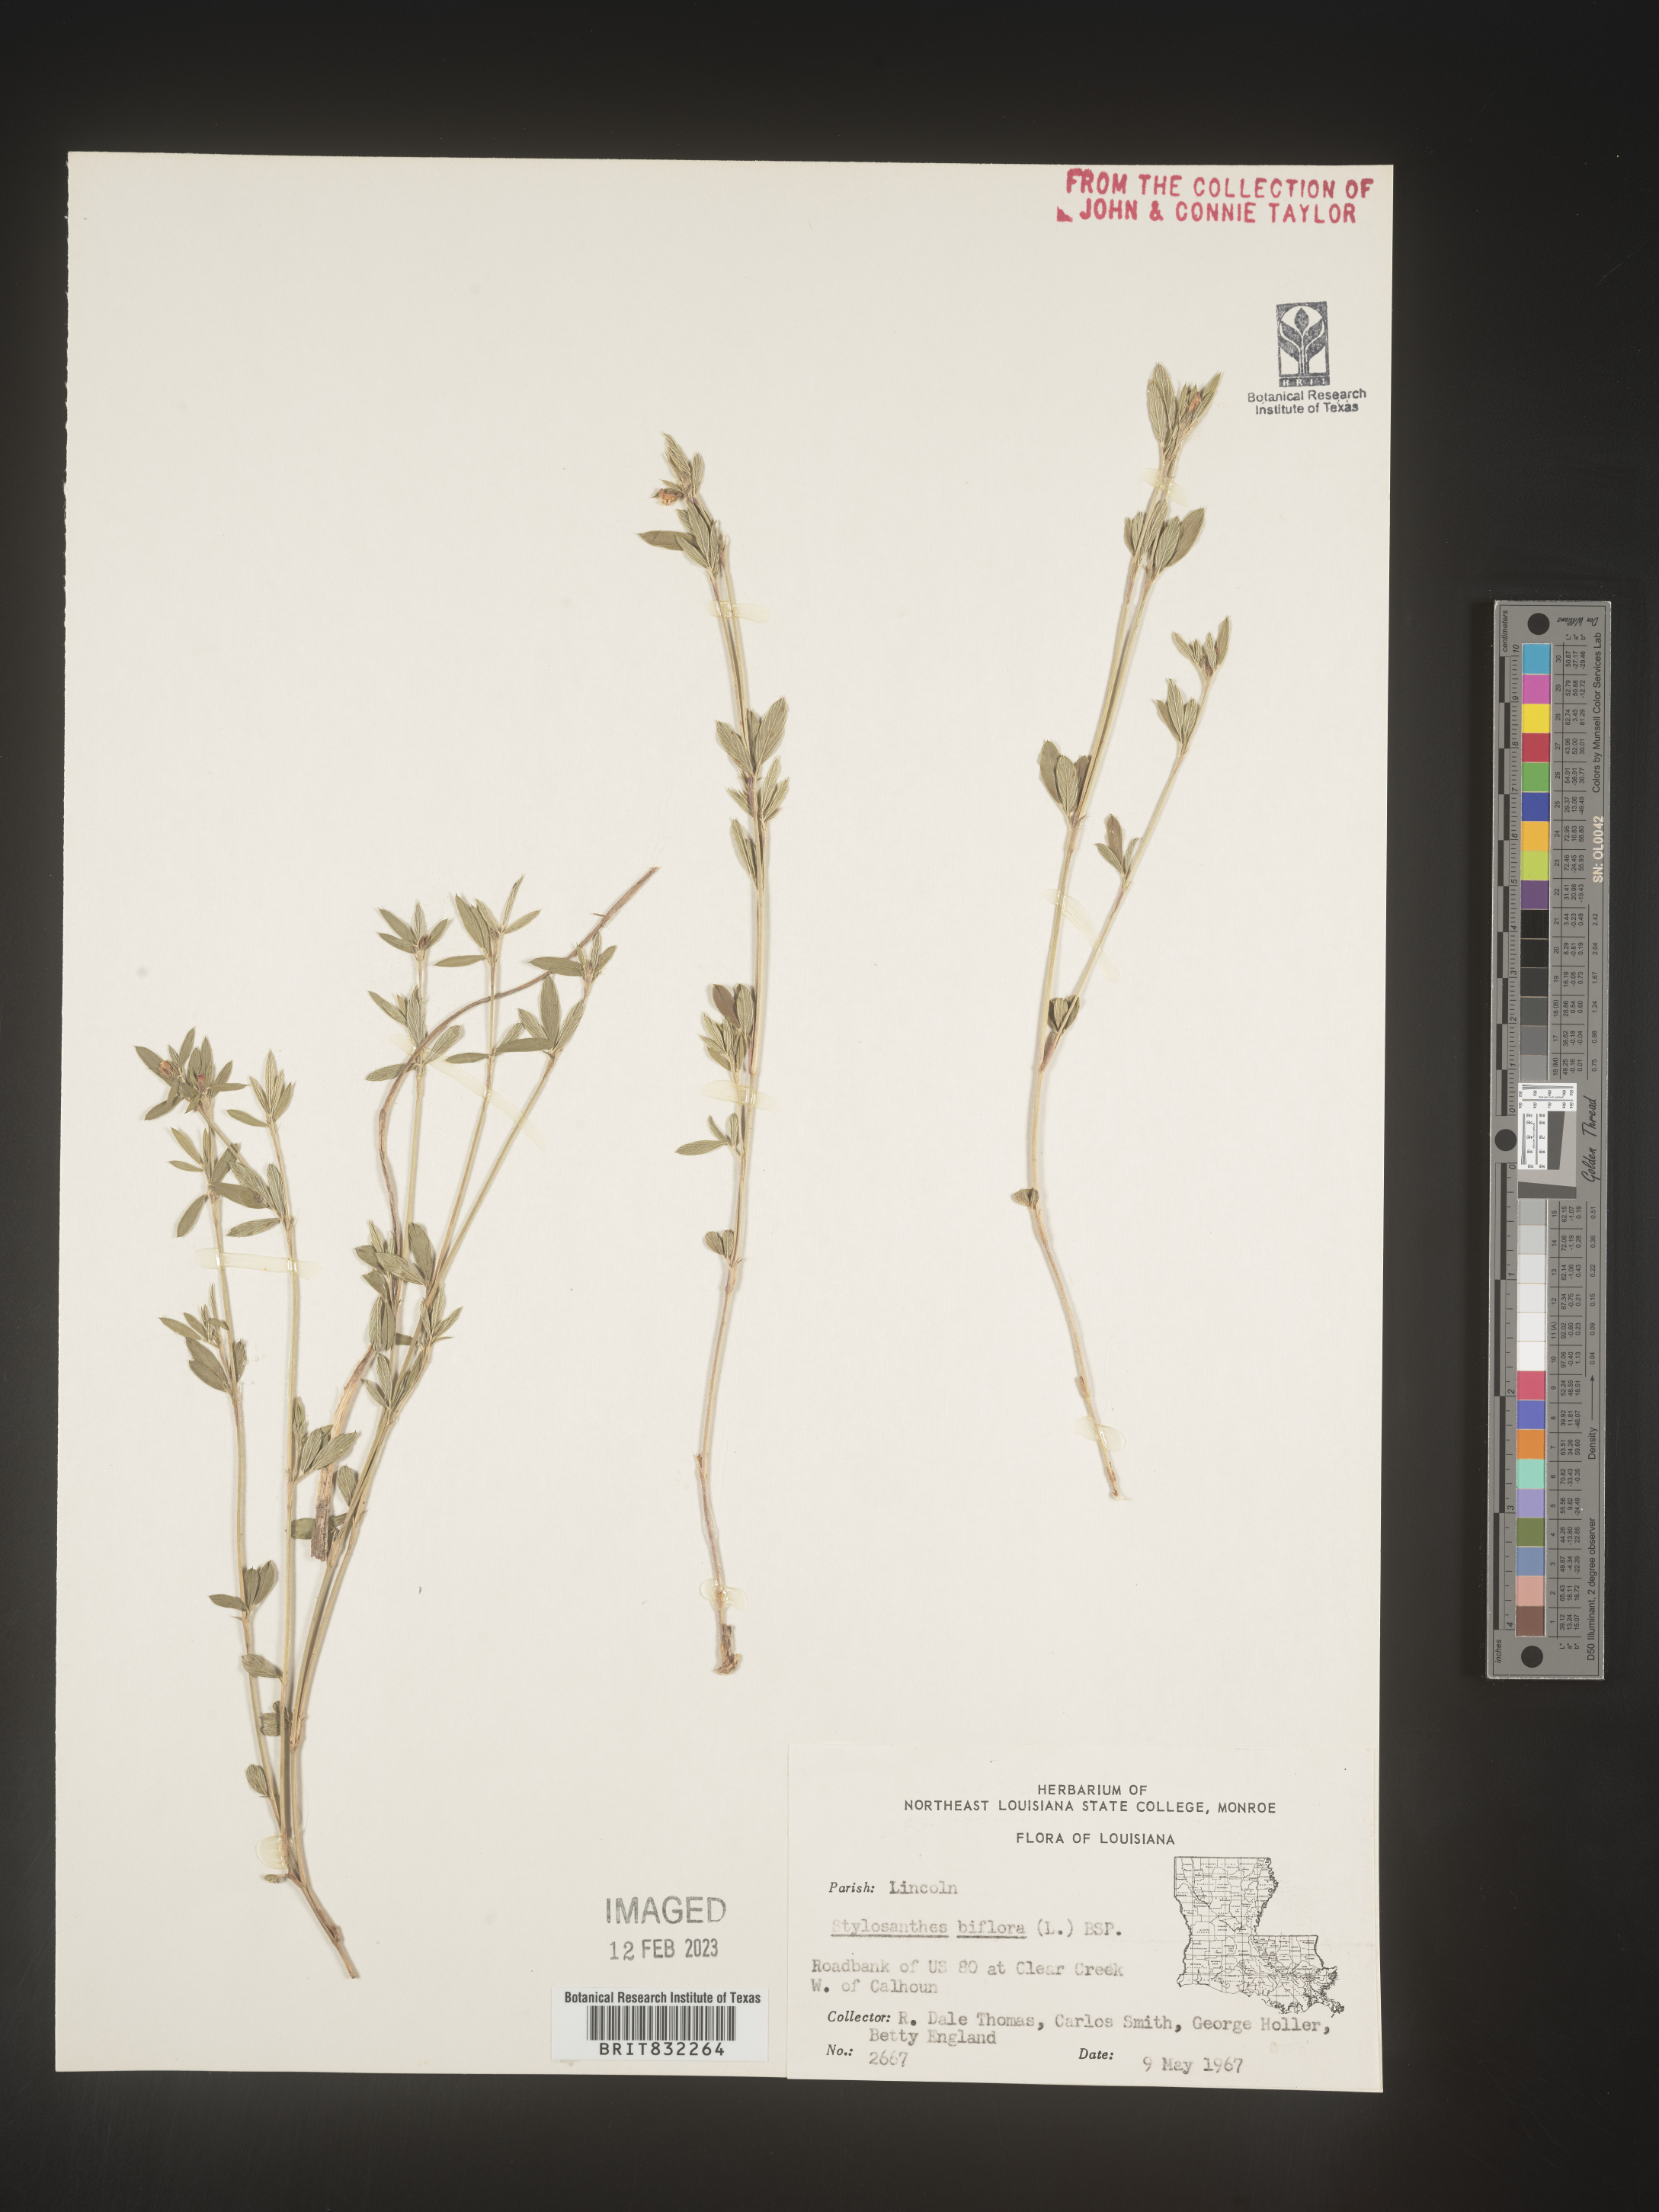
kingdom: Plantae
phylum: Tracheophyta
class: Magnoliopsida
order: Fabales
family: Fabaceae
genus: Stylosanthes
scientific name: Stylosanthes biflora
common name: Two-flower pencil-flower
